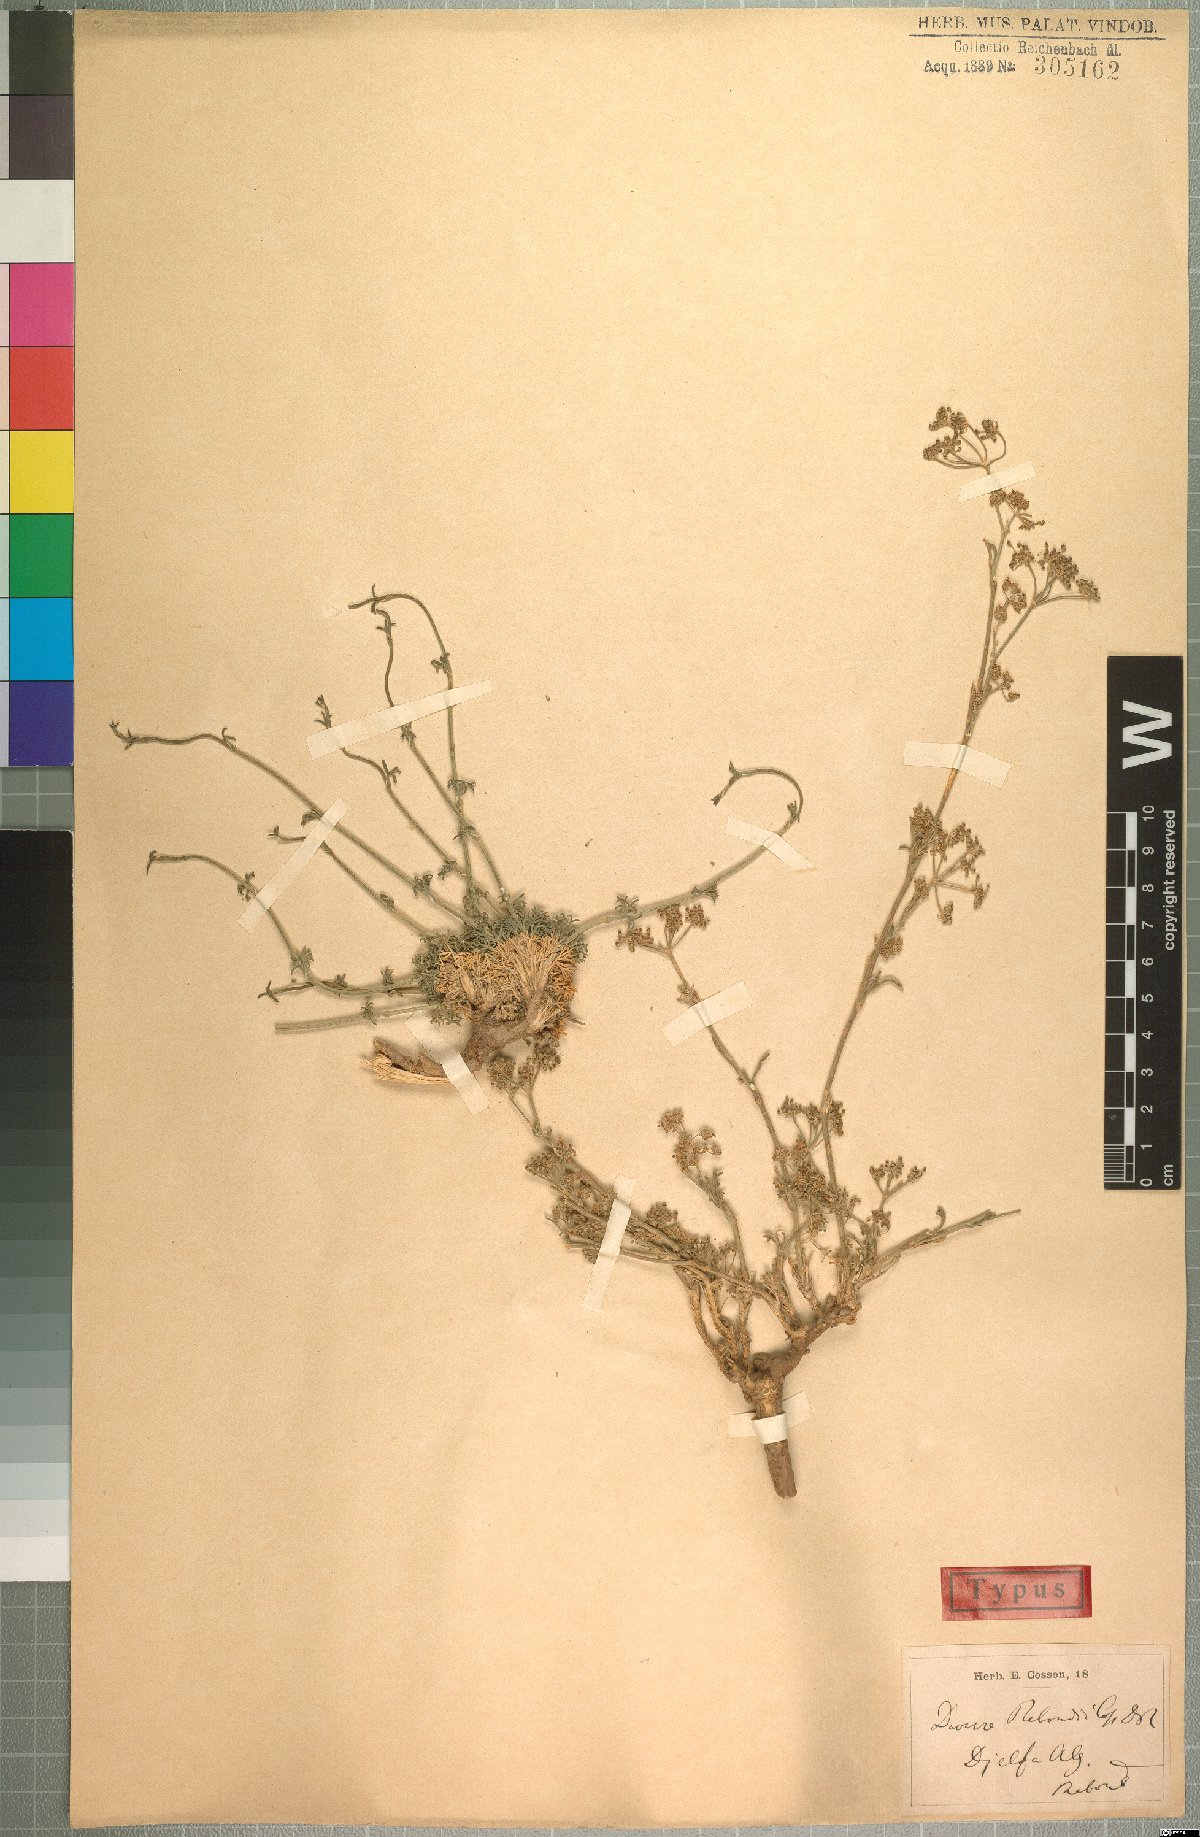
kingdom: Plantae
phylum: Tracheophyta
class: Magnoliopsida
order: Apiales
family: Apiaceae
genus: Deverra
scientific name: Deverra reboudii
